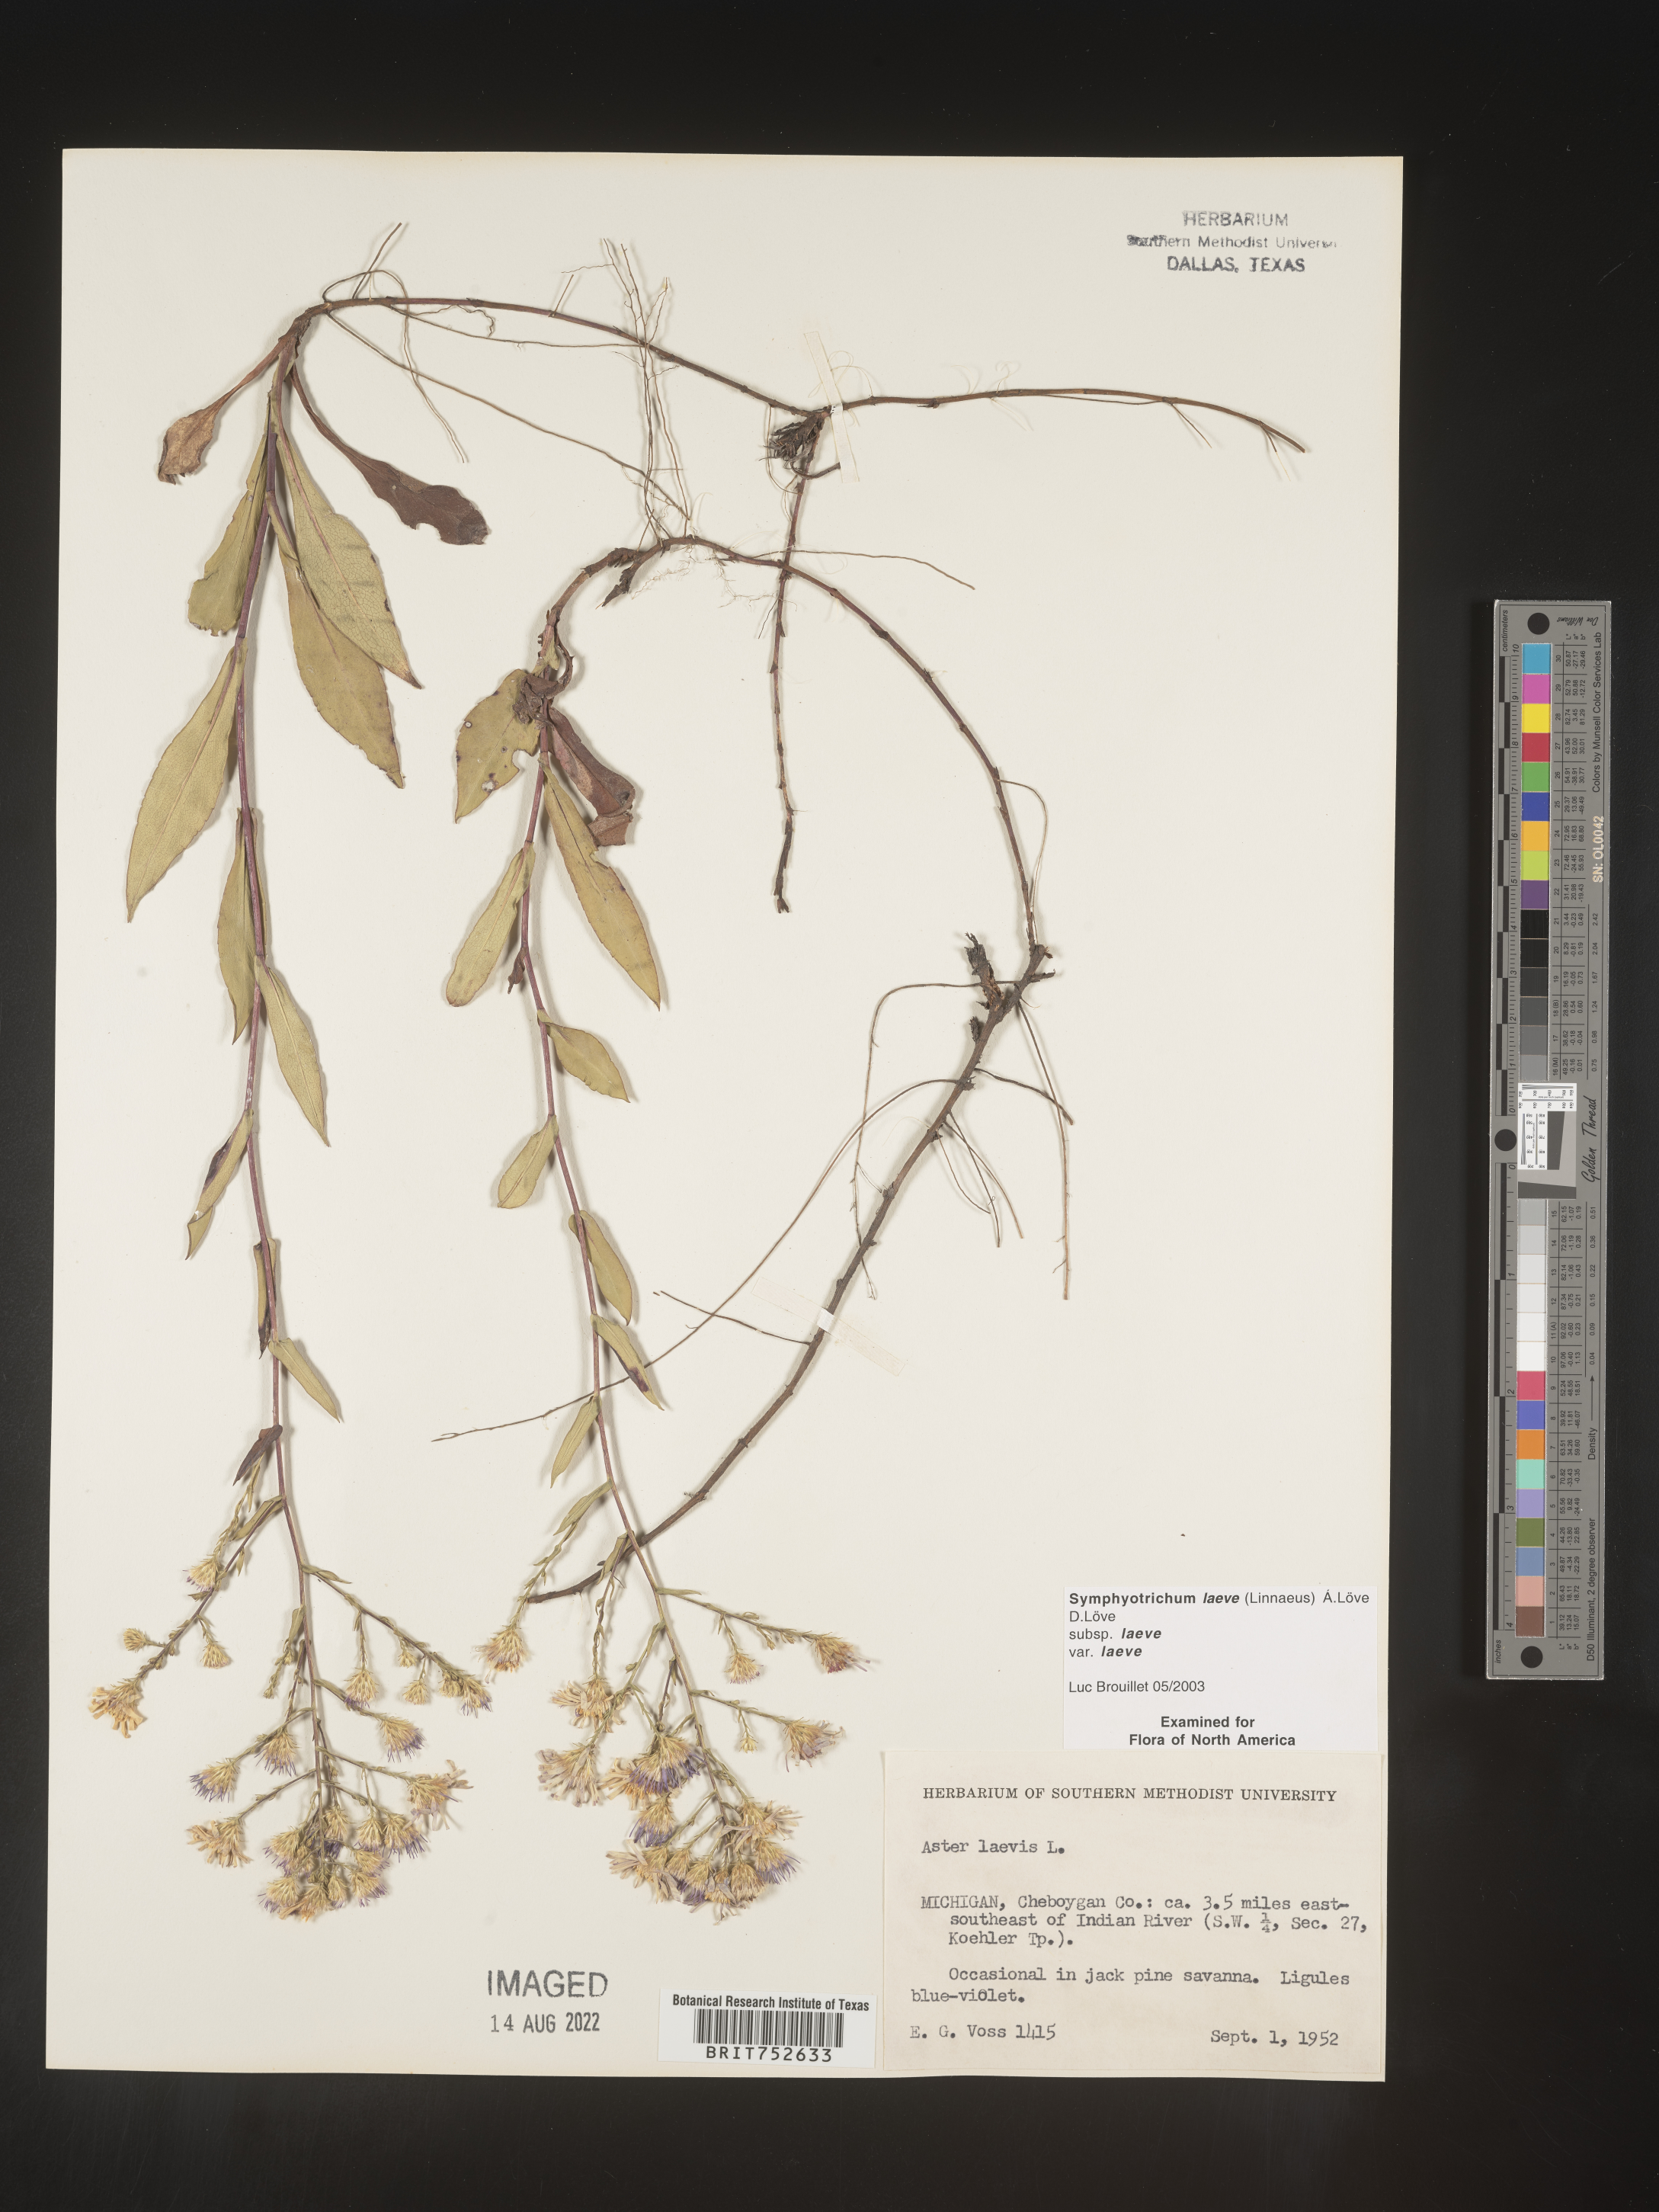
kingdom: Plantae
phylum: Tracheophyta
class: Magnoliopsida
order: Asterales
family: Asteraceae
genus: Symphyotrichum
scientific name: Symphyotrichum laeve
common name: Glaucous aster
